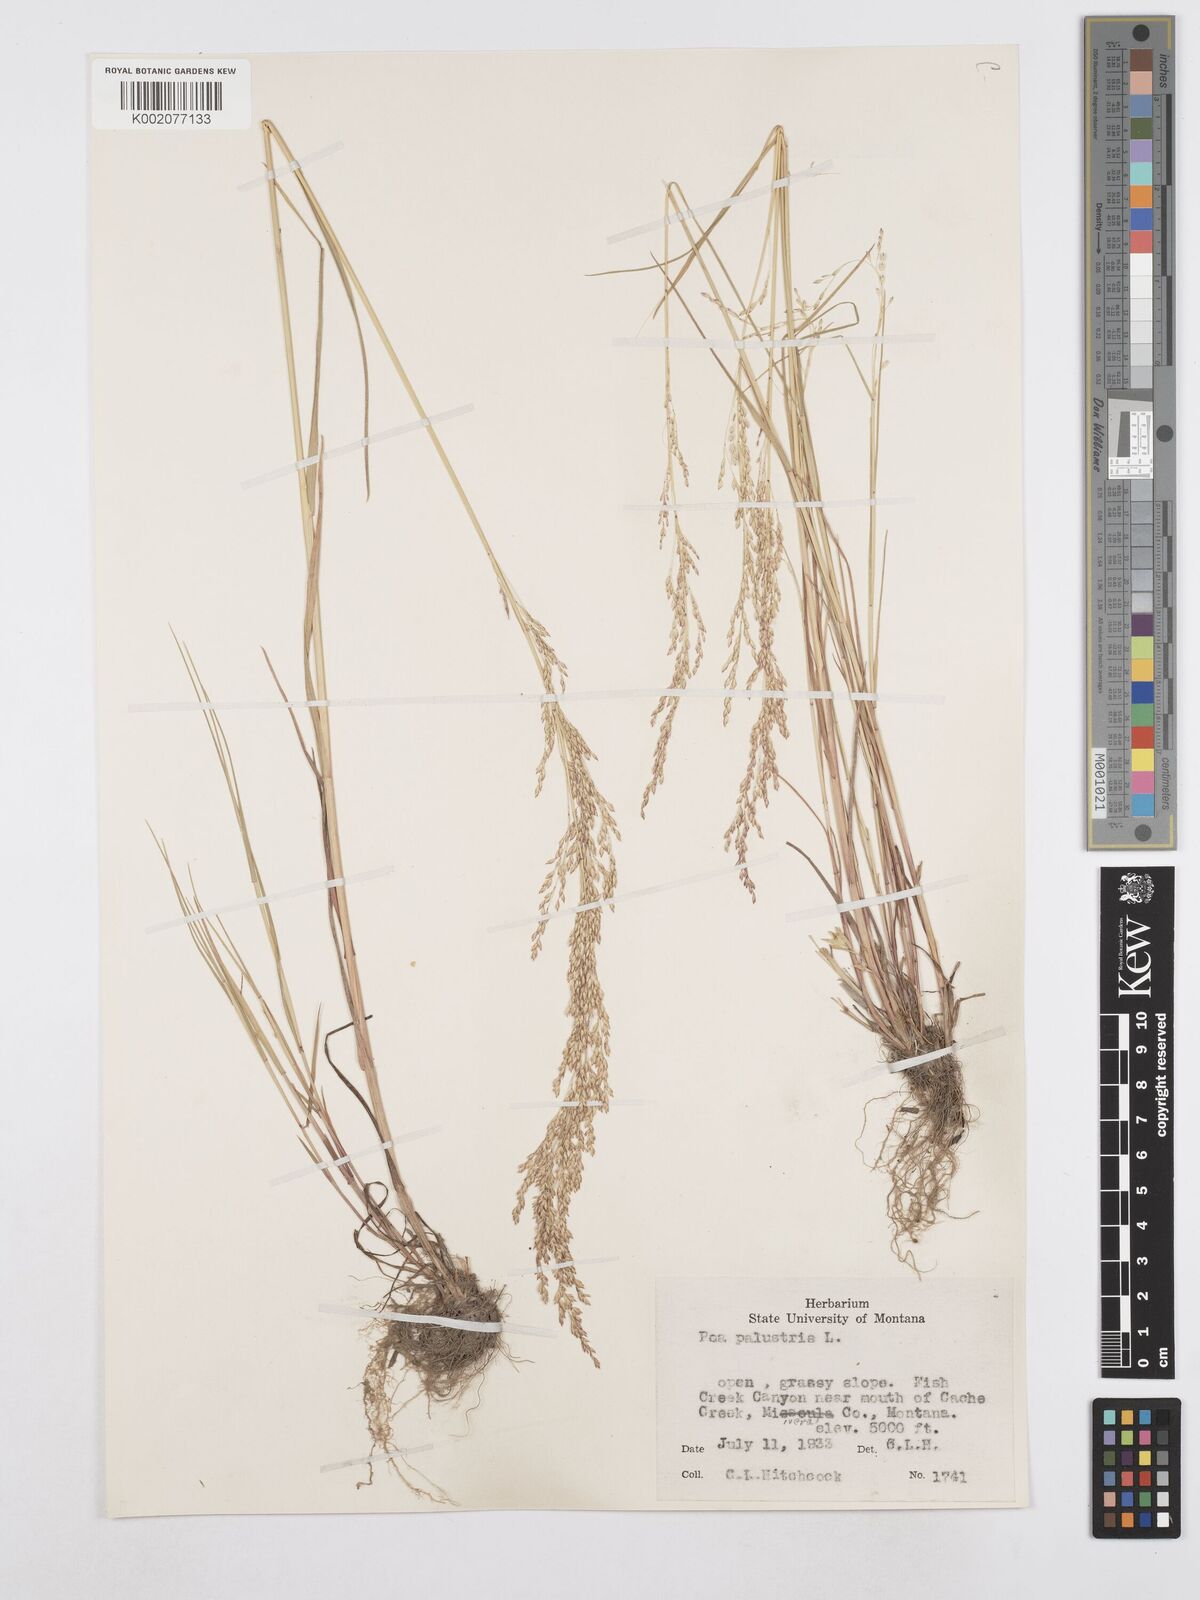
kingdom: Plantae
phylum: Tracheophyta
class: Liliopsida
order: Poales
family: Poaceae
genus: Poa
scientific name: Poa palustris
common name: Swamp meadow-grass
